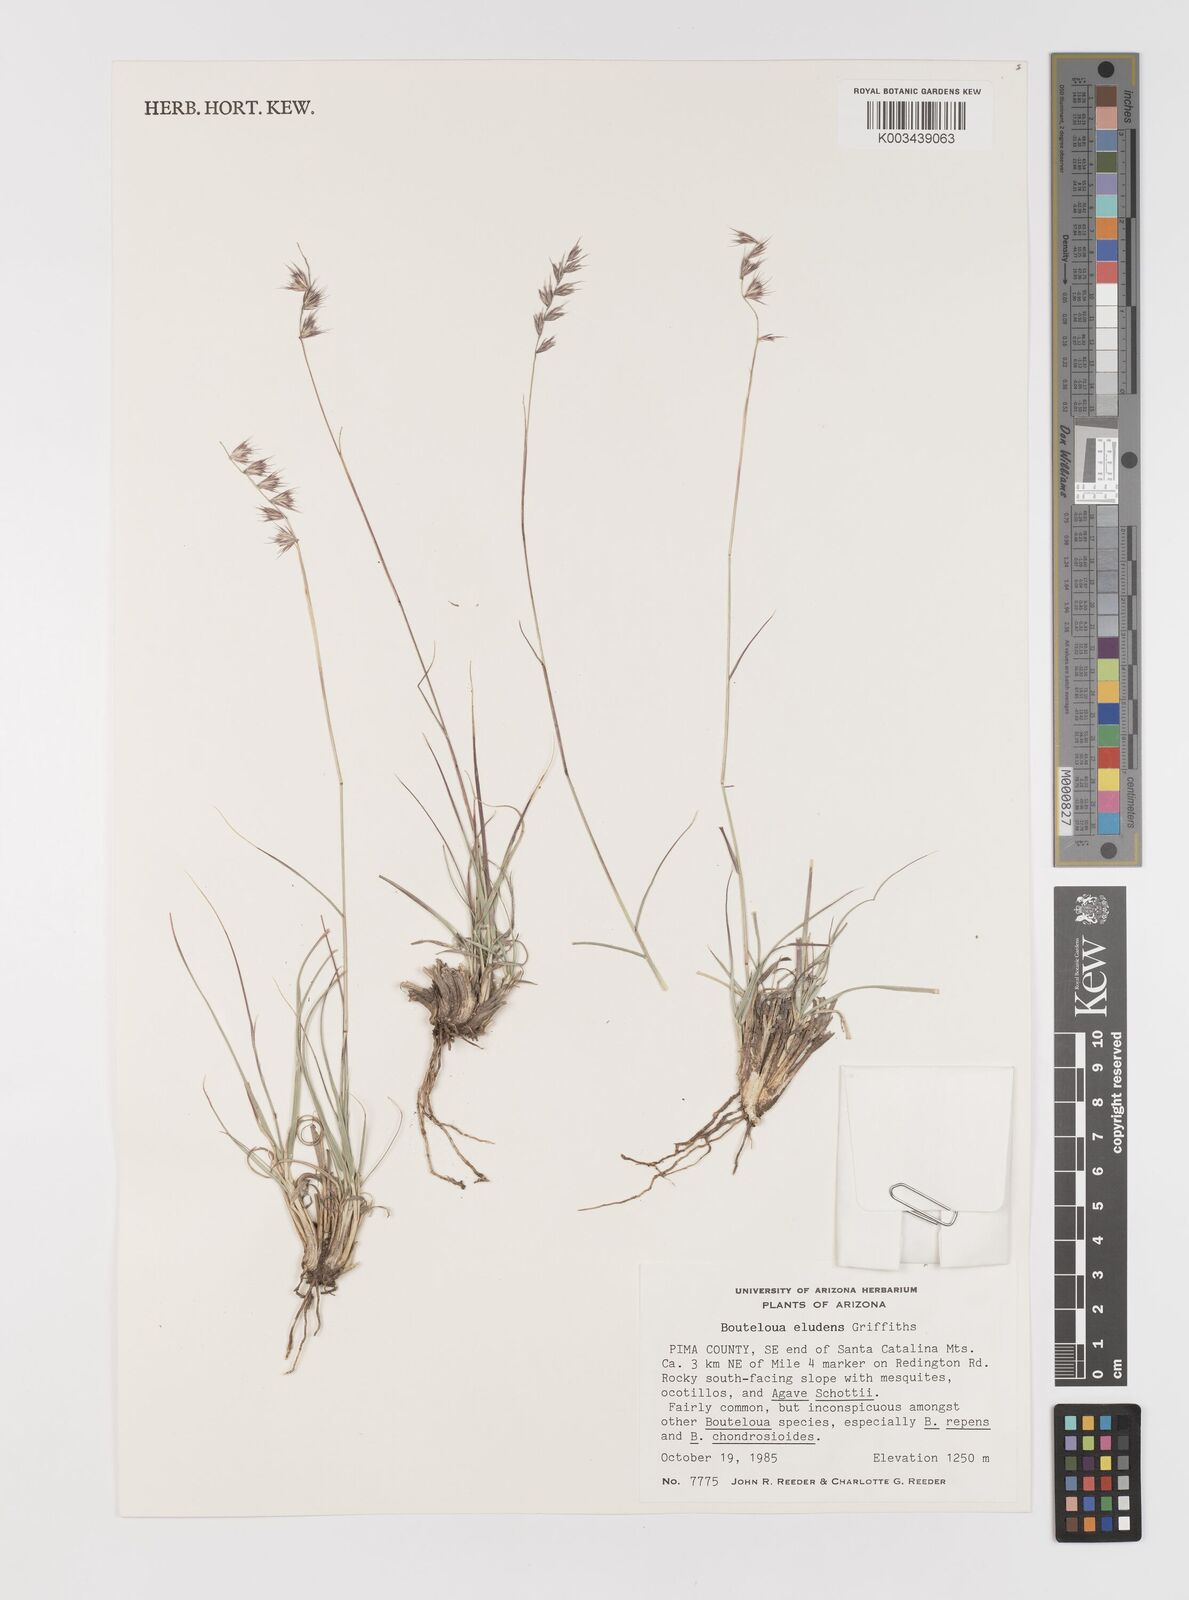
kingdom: Plantae
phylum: Tracheophyta
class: Liliopsida
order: Poales
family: Poaceae
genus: Bouteloua
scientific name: Bouteloua eludens
